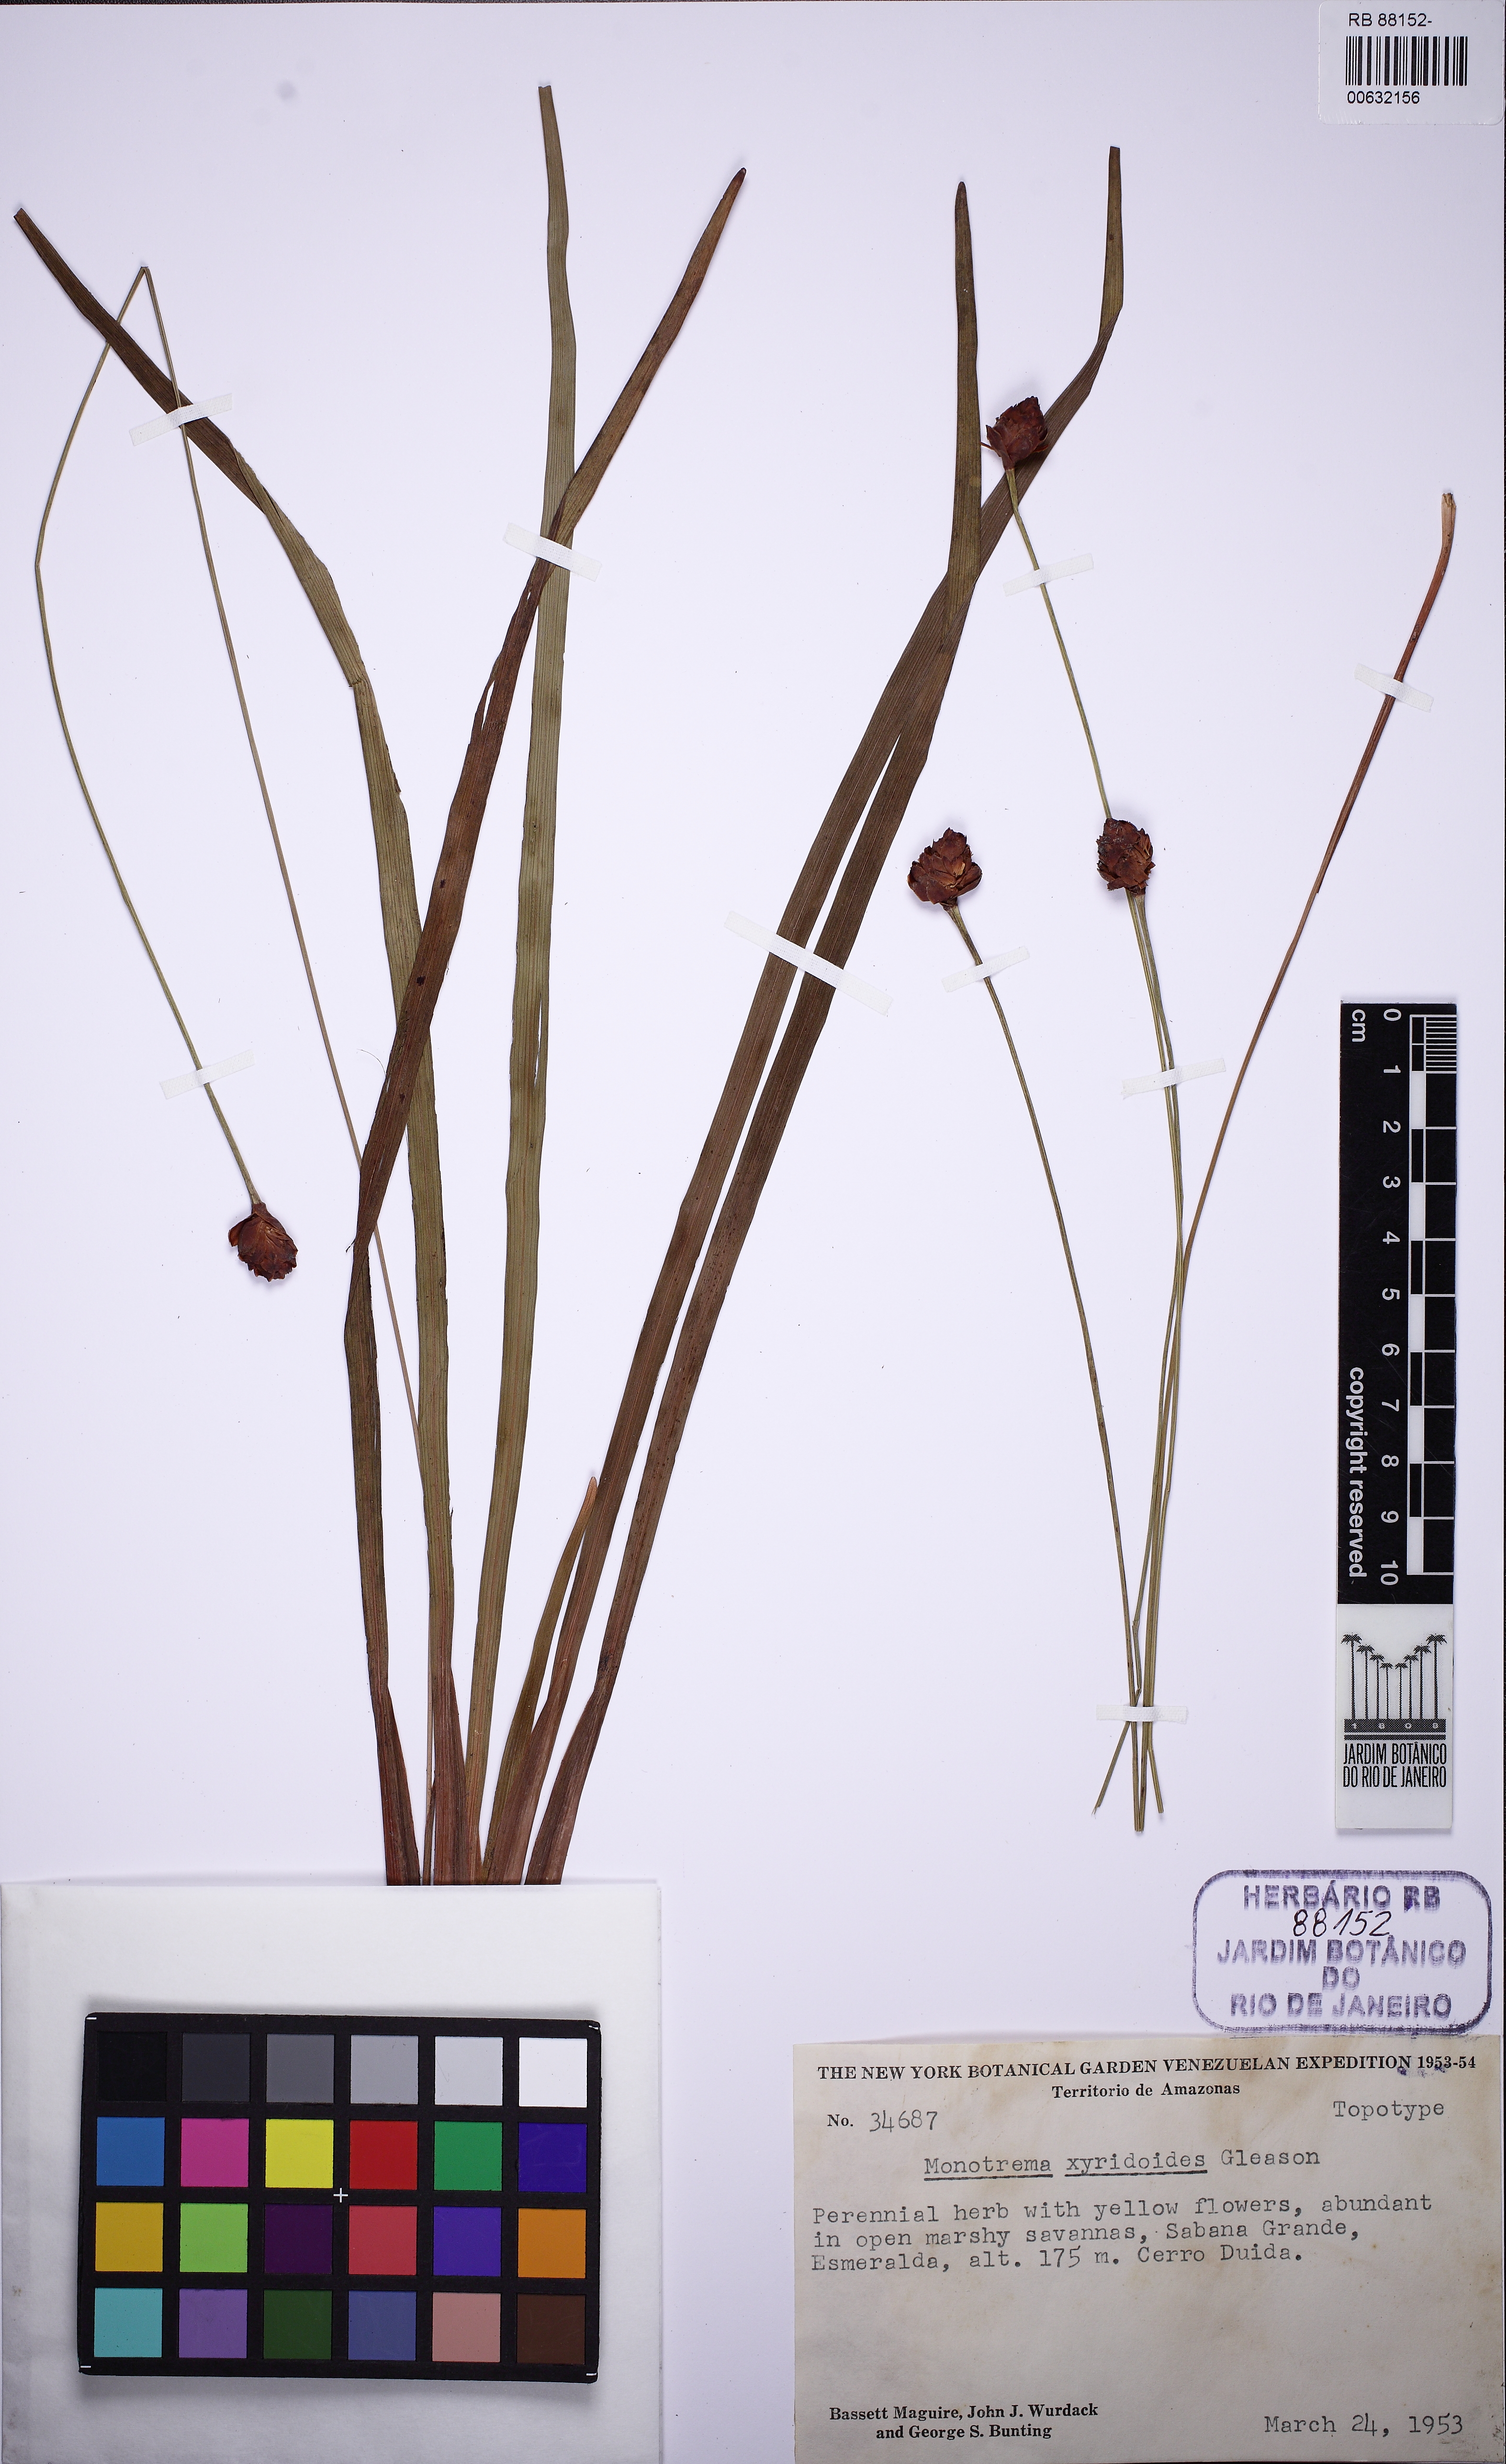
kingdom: Plantae
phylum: Tracheophyta
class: Liliopsida
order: Poales
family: Rapateaceae
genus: Monotrema
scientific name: Monotrema xyridoides
